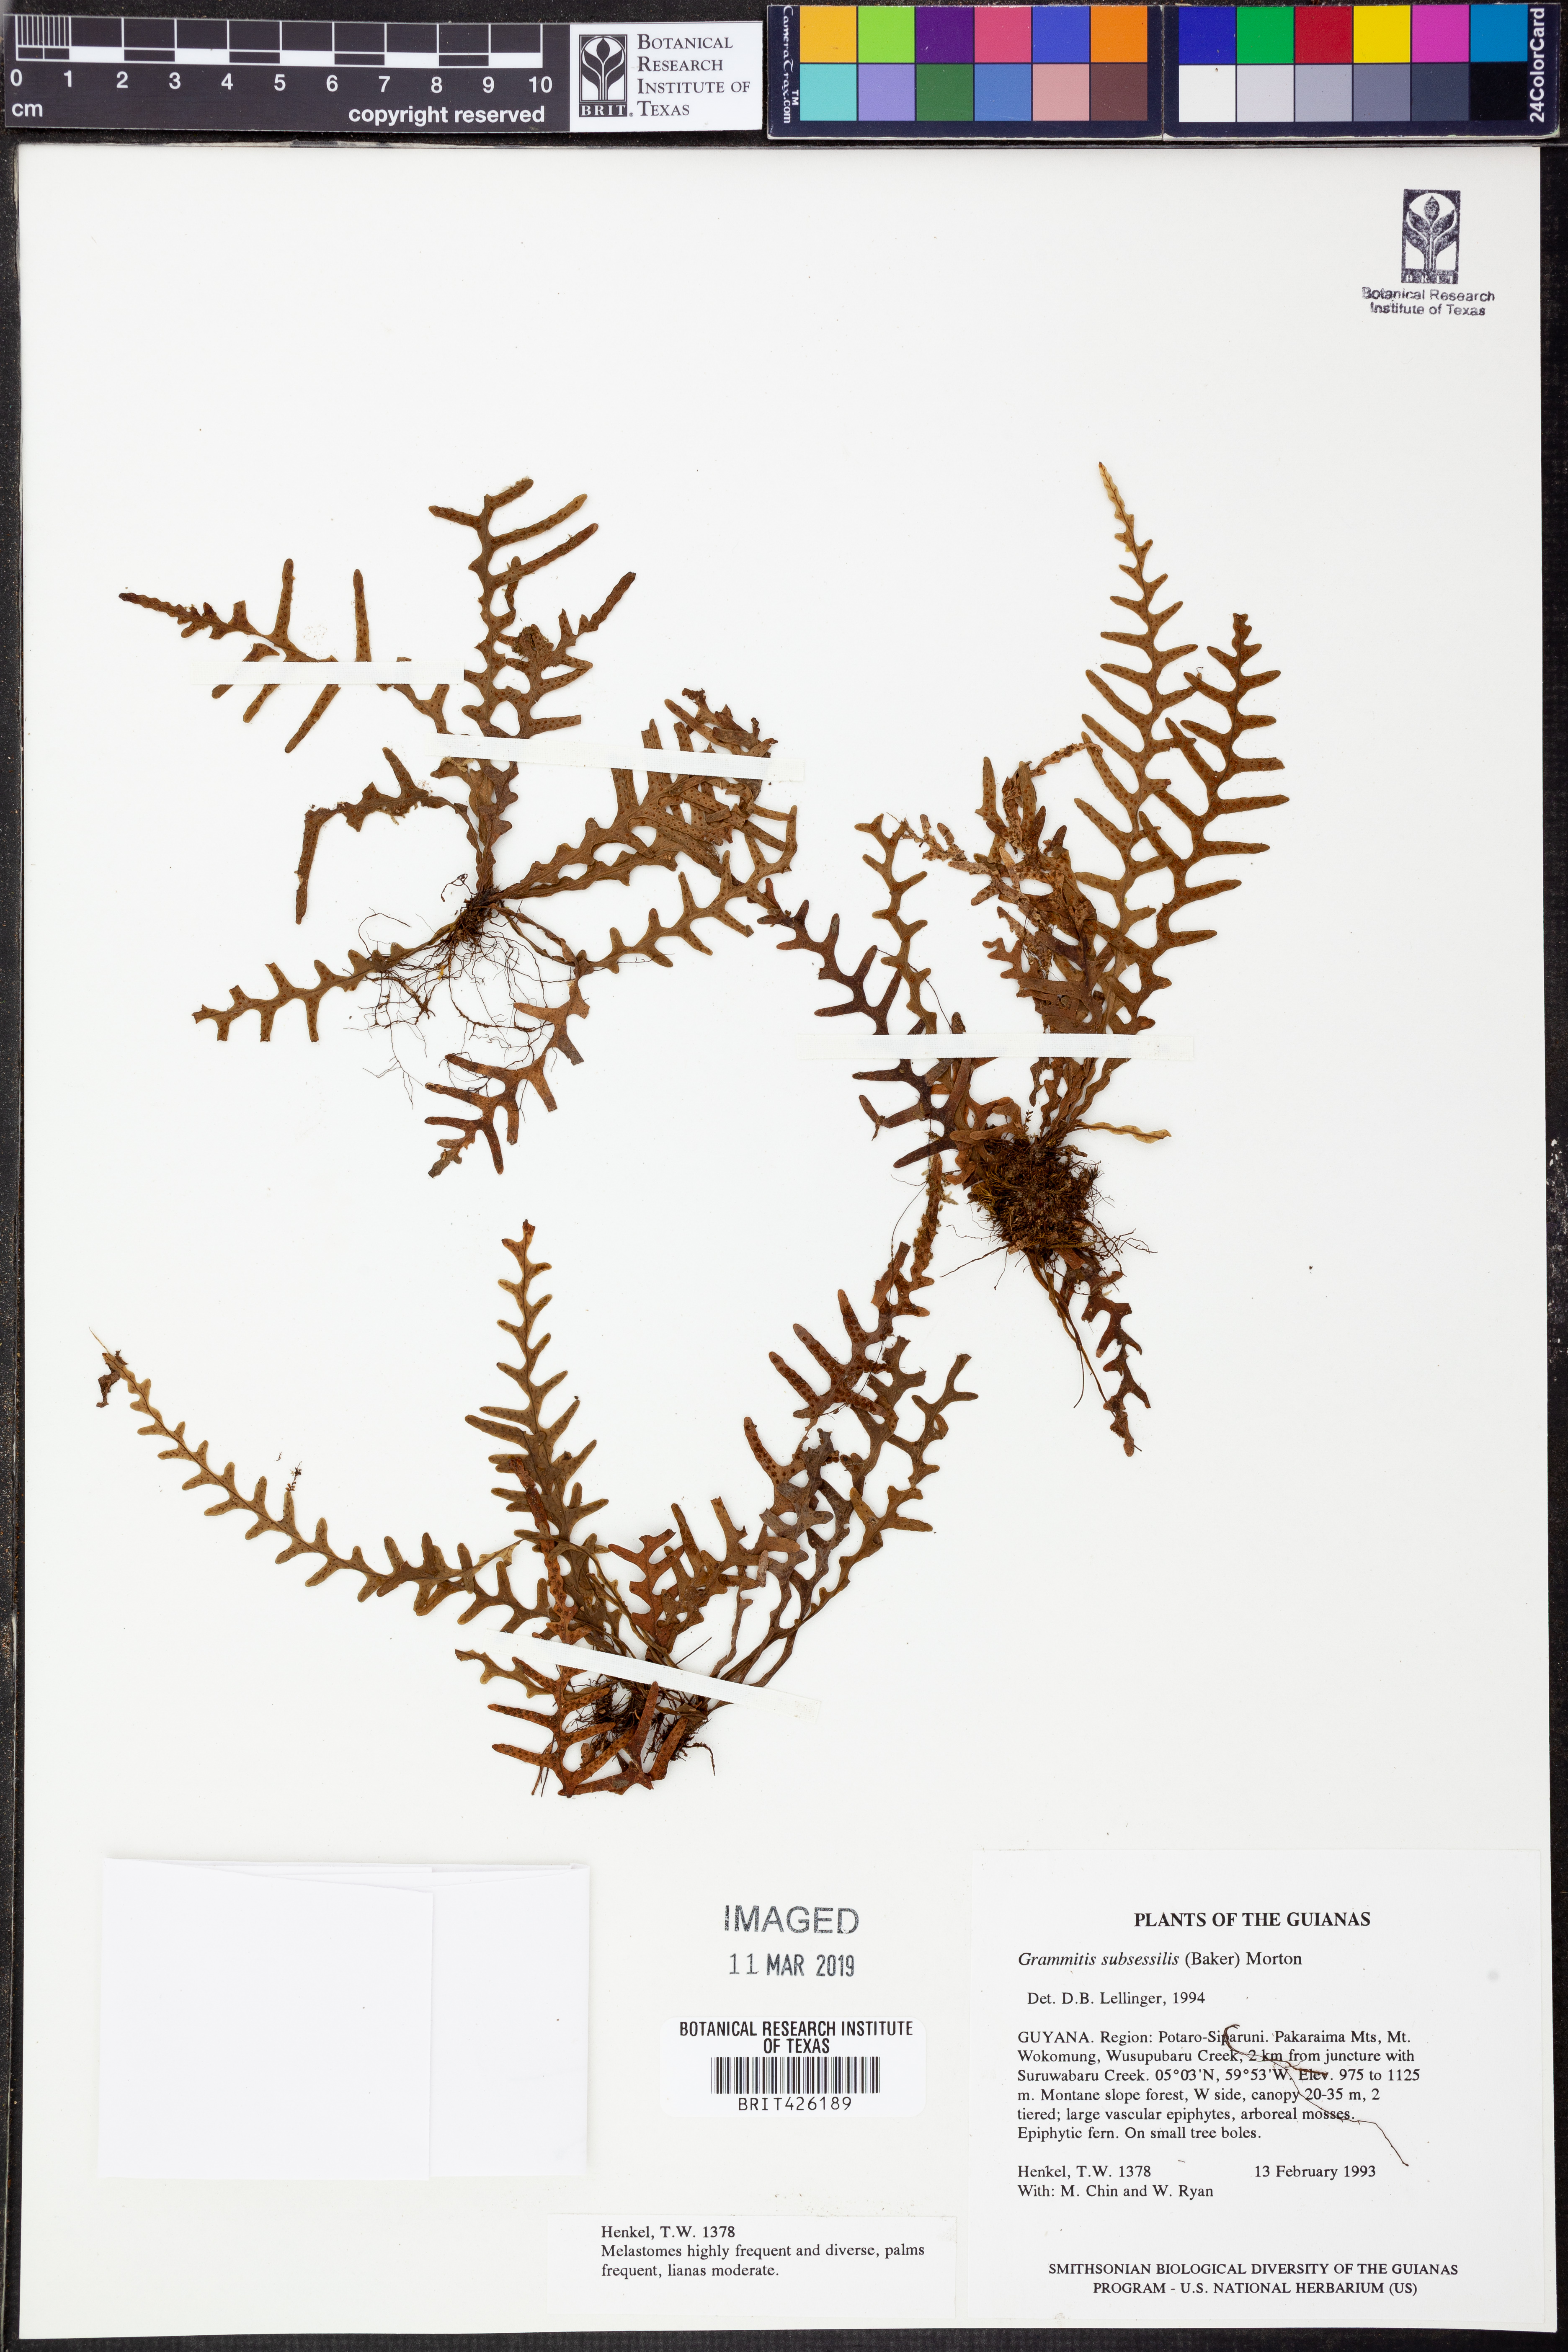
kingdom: Plantae
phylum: Tracheophyta
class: Polypodiopsida
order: Polypodiales
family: Polypodiaceae
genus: Lellingeria
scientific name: Lellingeria subsessilis
